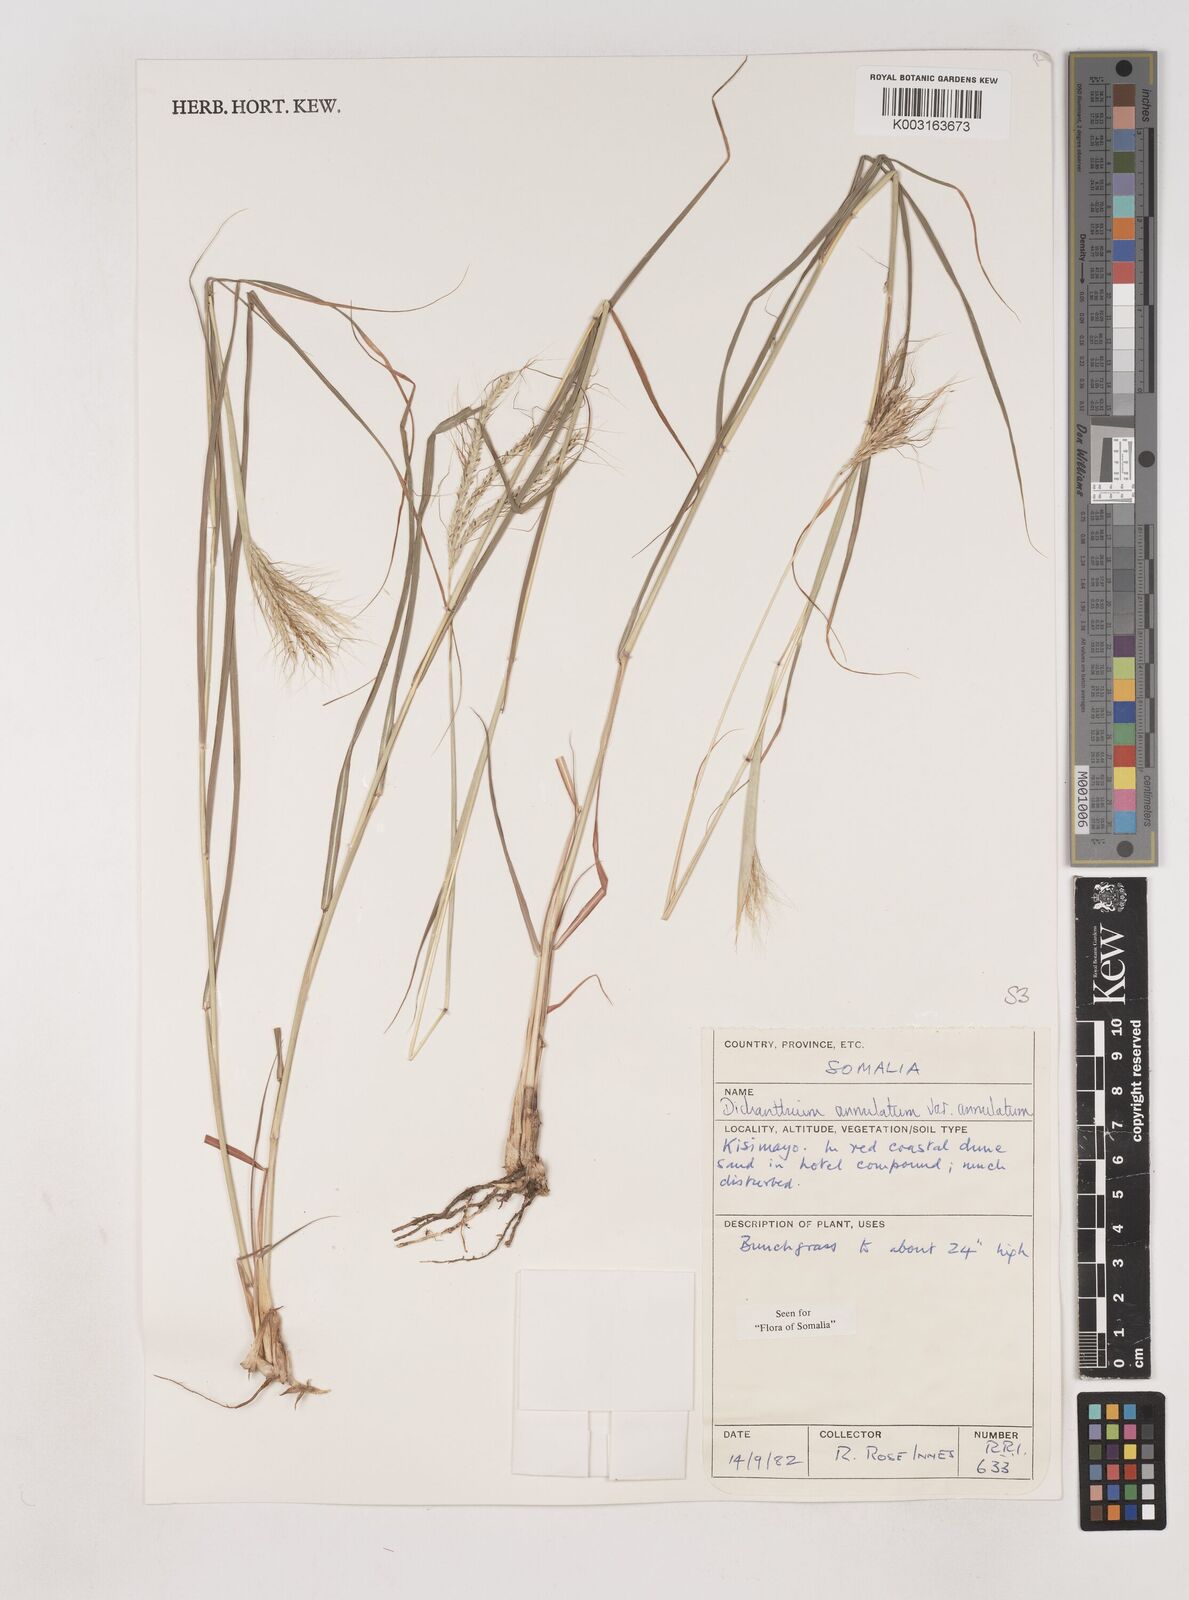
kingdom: Plantae
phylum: Tracheophyta
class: Liliopsida
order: Poales
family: Poaceae
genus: Dichanthium
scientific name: Dichanthium annulatum
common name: Kleberg's bluestem
